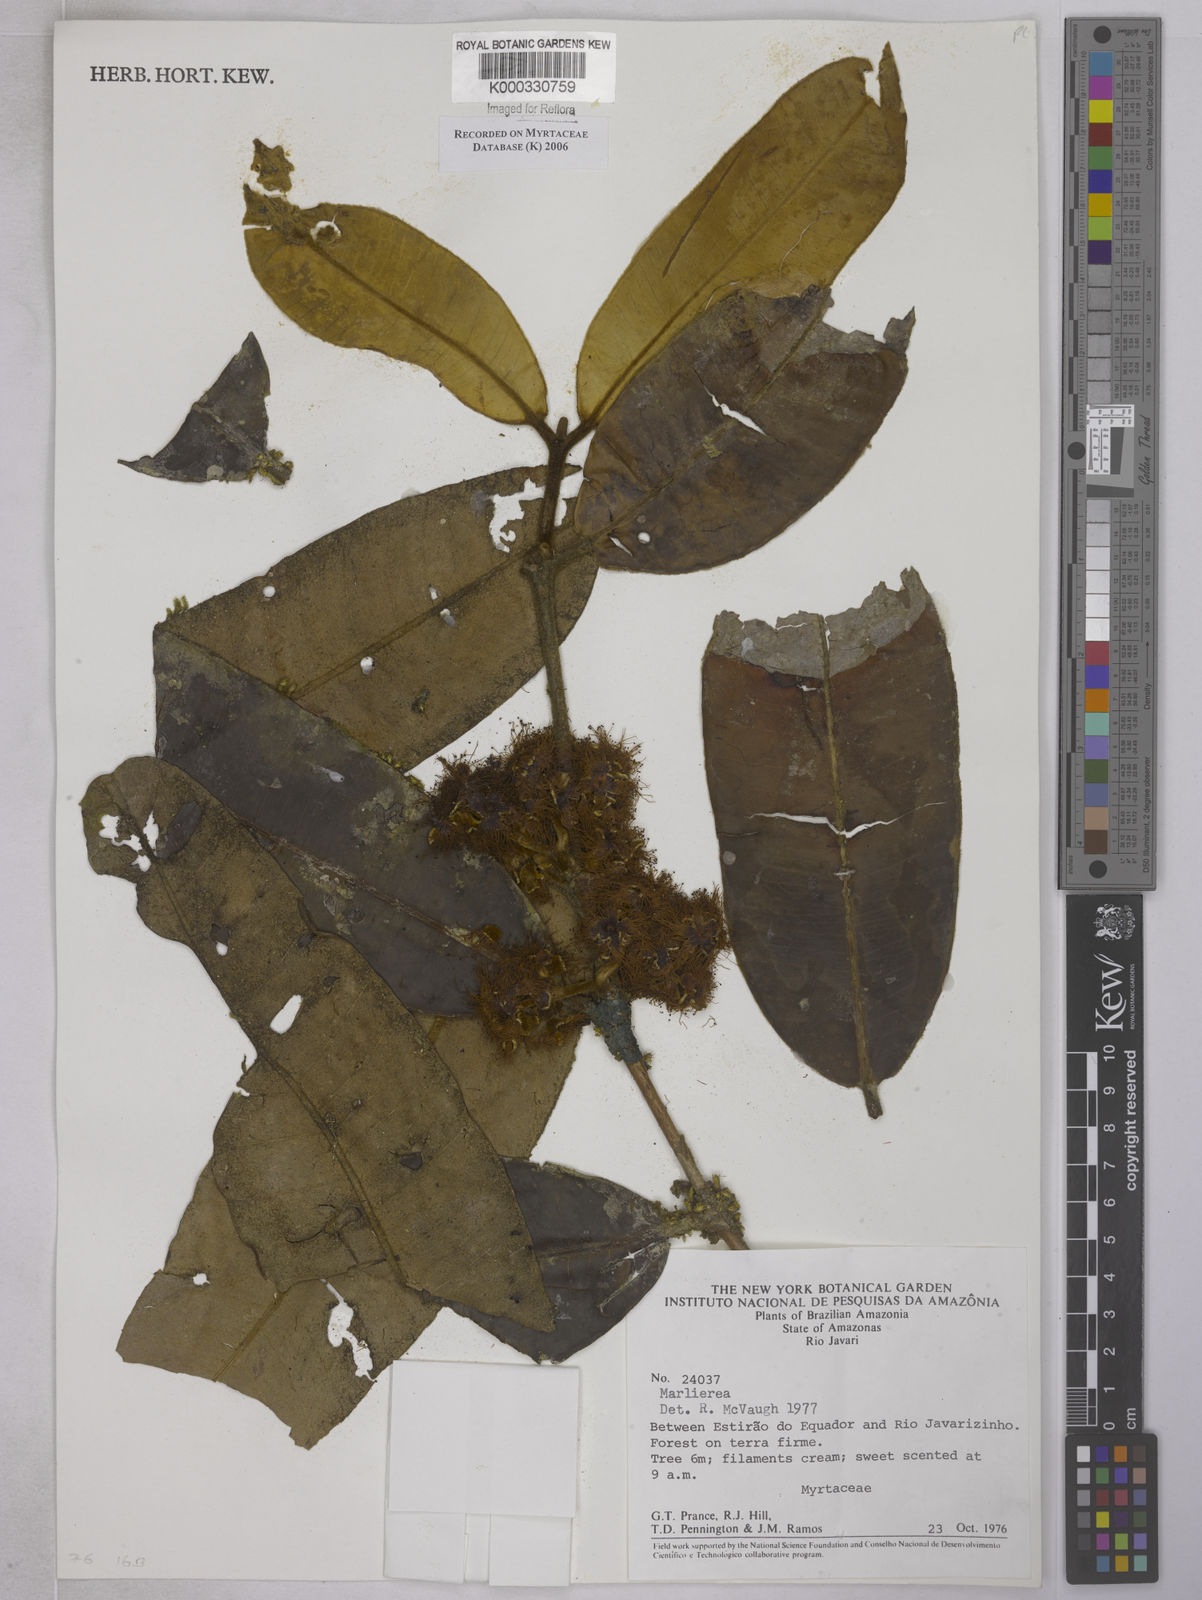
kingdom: Plantae
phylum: Tracheophyta
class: Magnoliopsida
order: Myrtales
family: Myrtaceae
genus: Marlierea
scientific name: Marlierea
